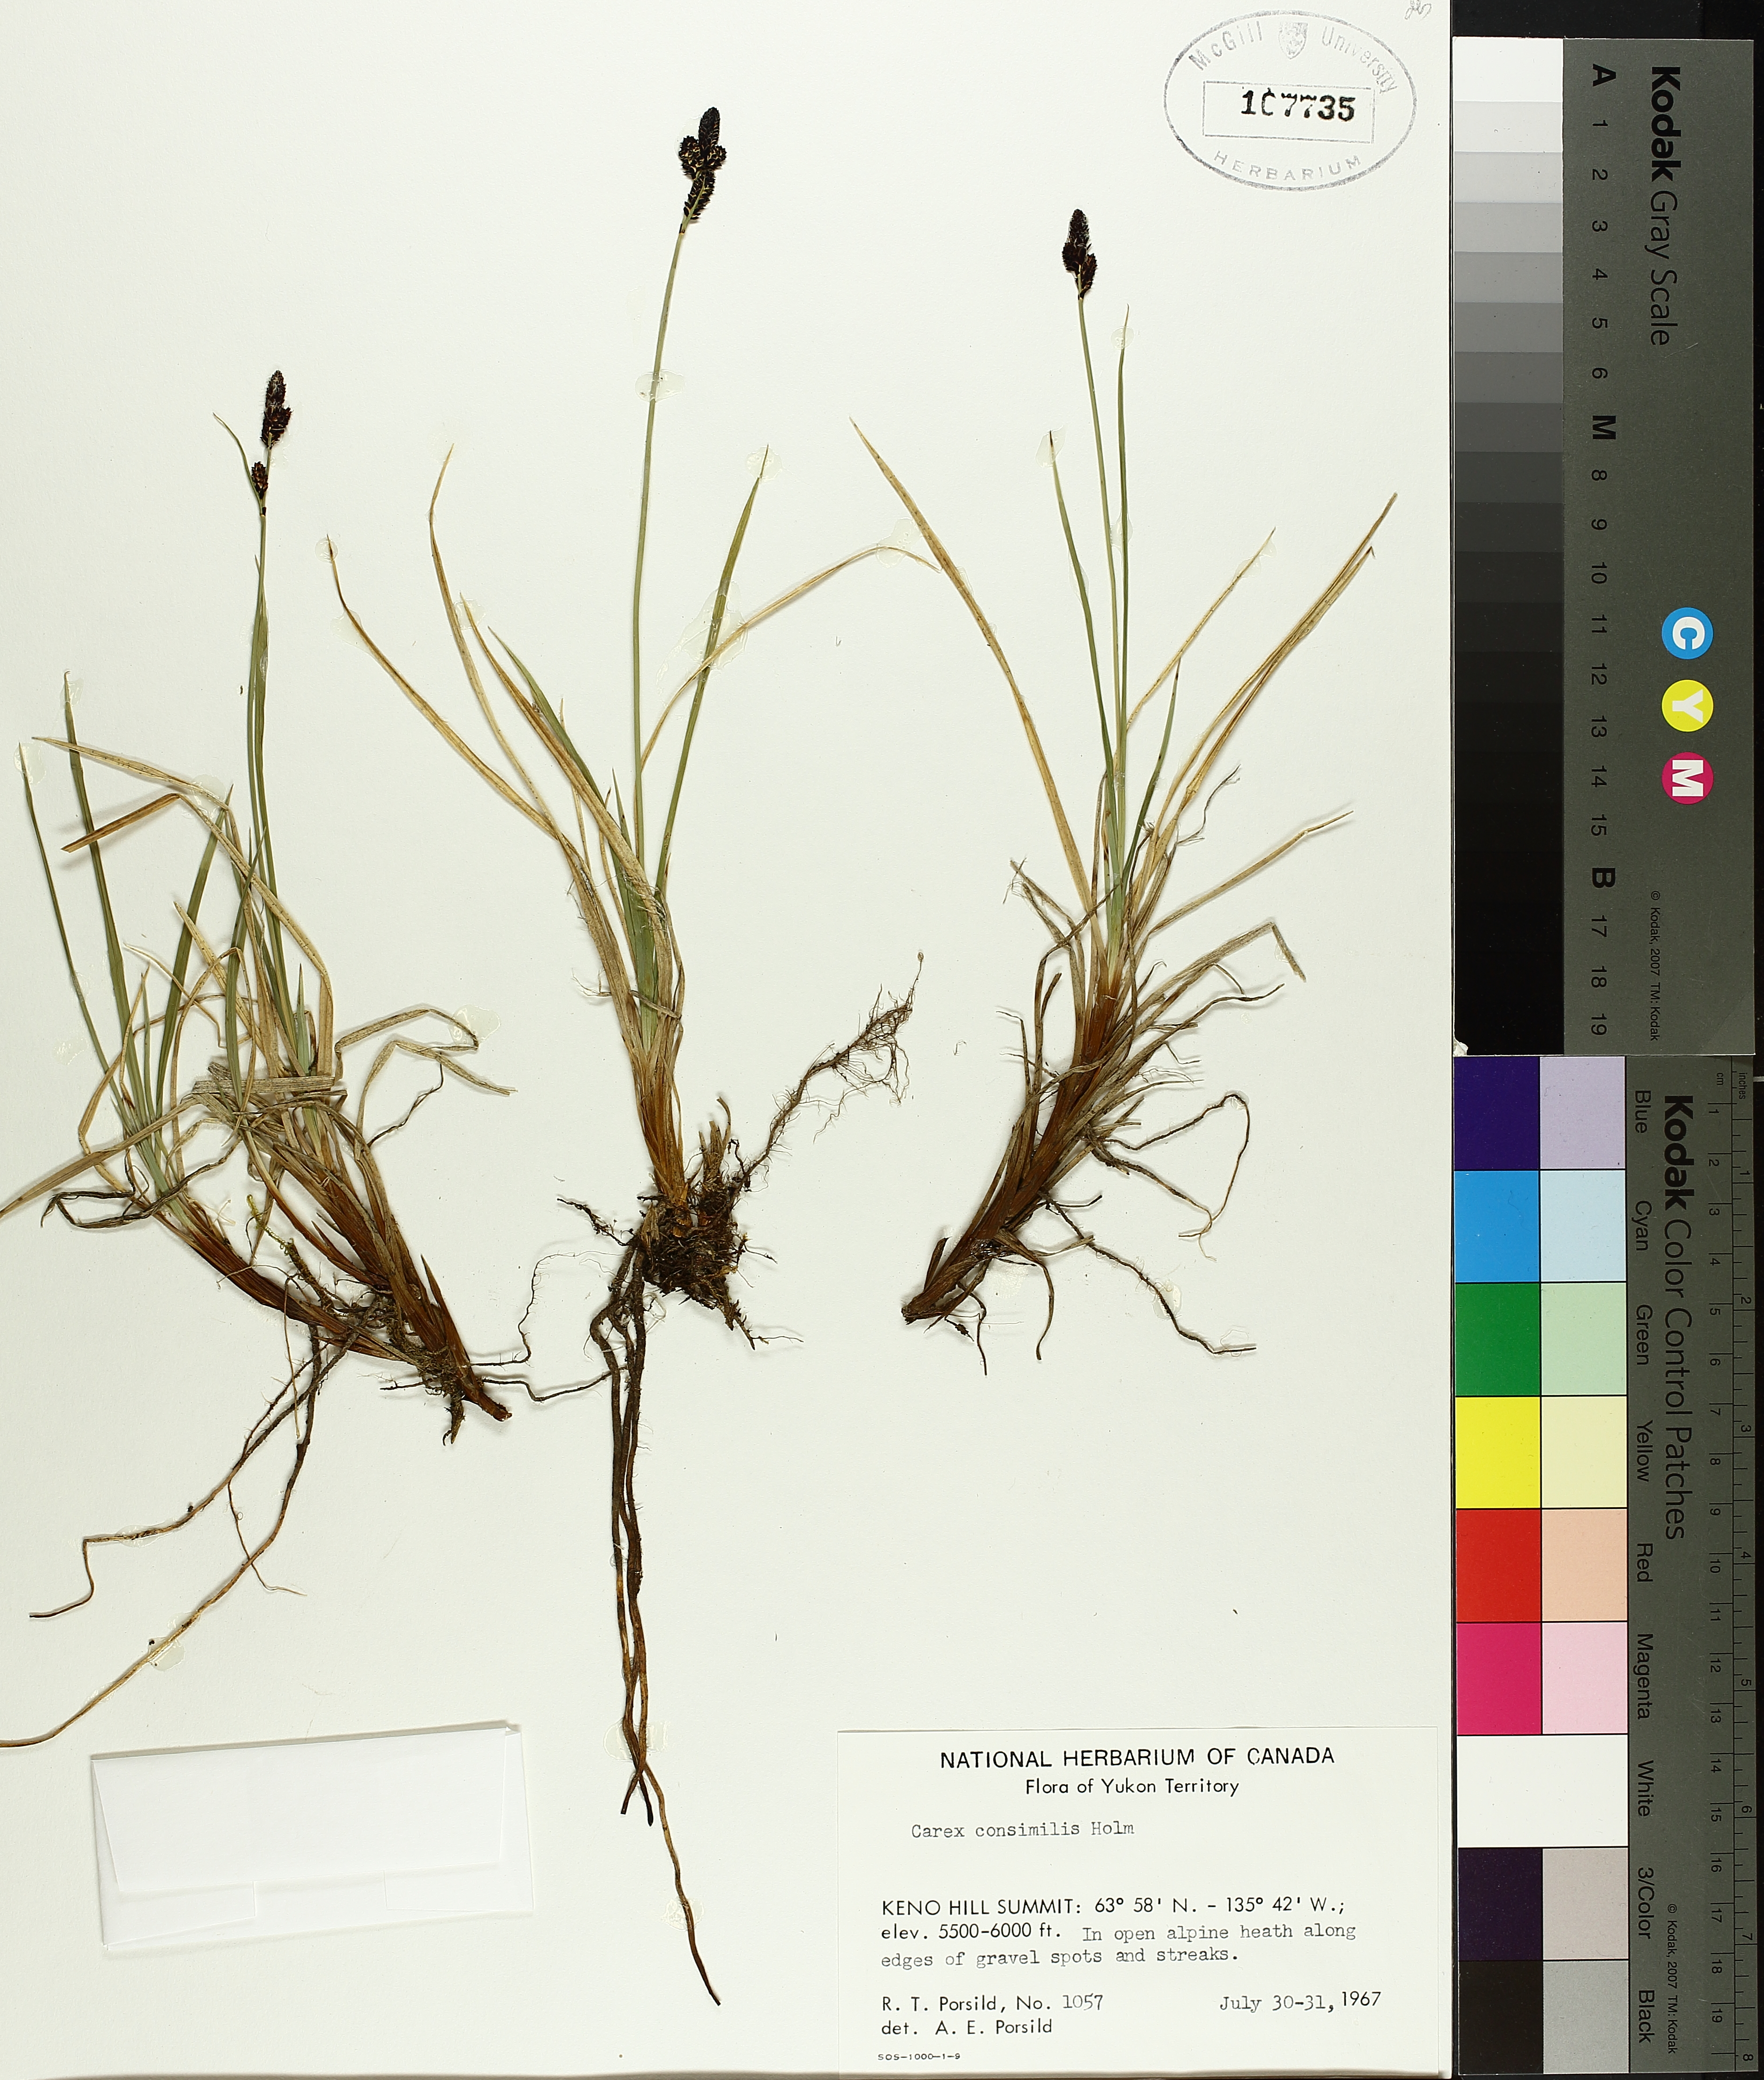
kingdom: Plantae
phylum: Tracheophyta
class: Liliopsida
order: Poales
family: Cyperaceae
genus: Carex
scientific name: Carex bigelowii
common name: Stiff sedge
